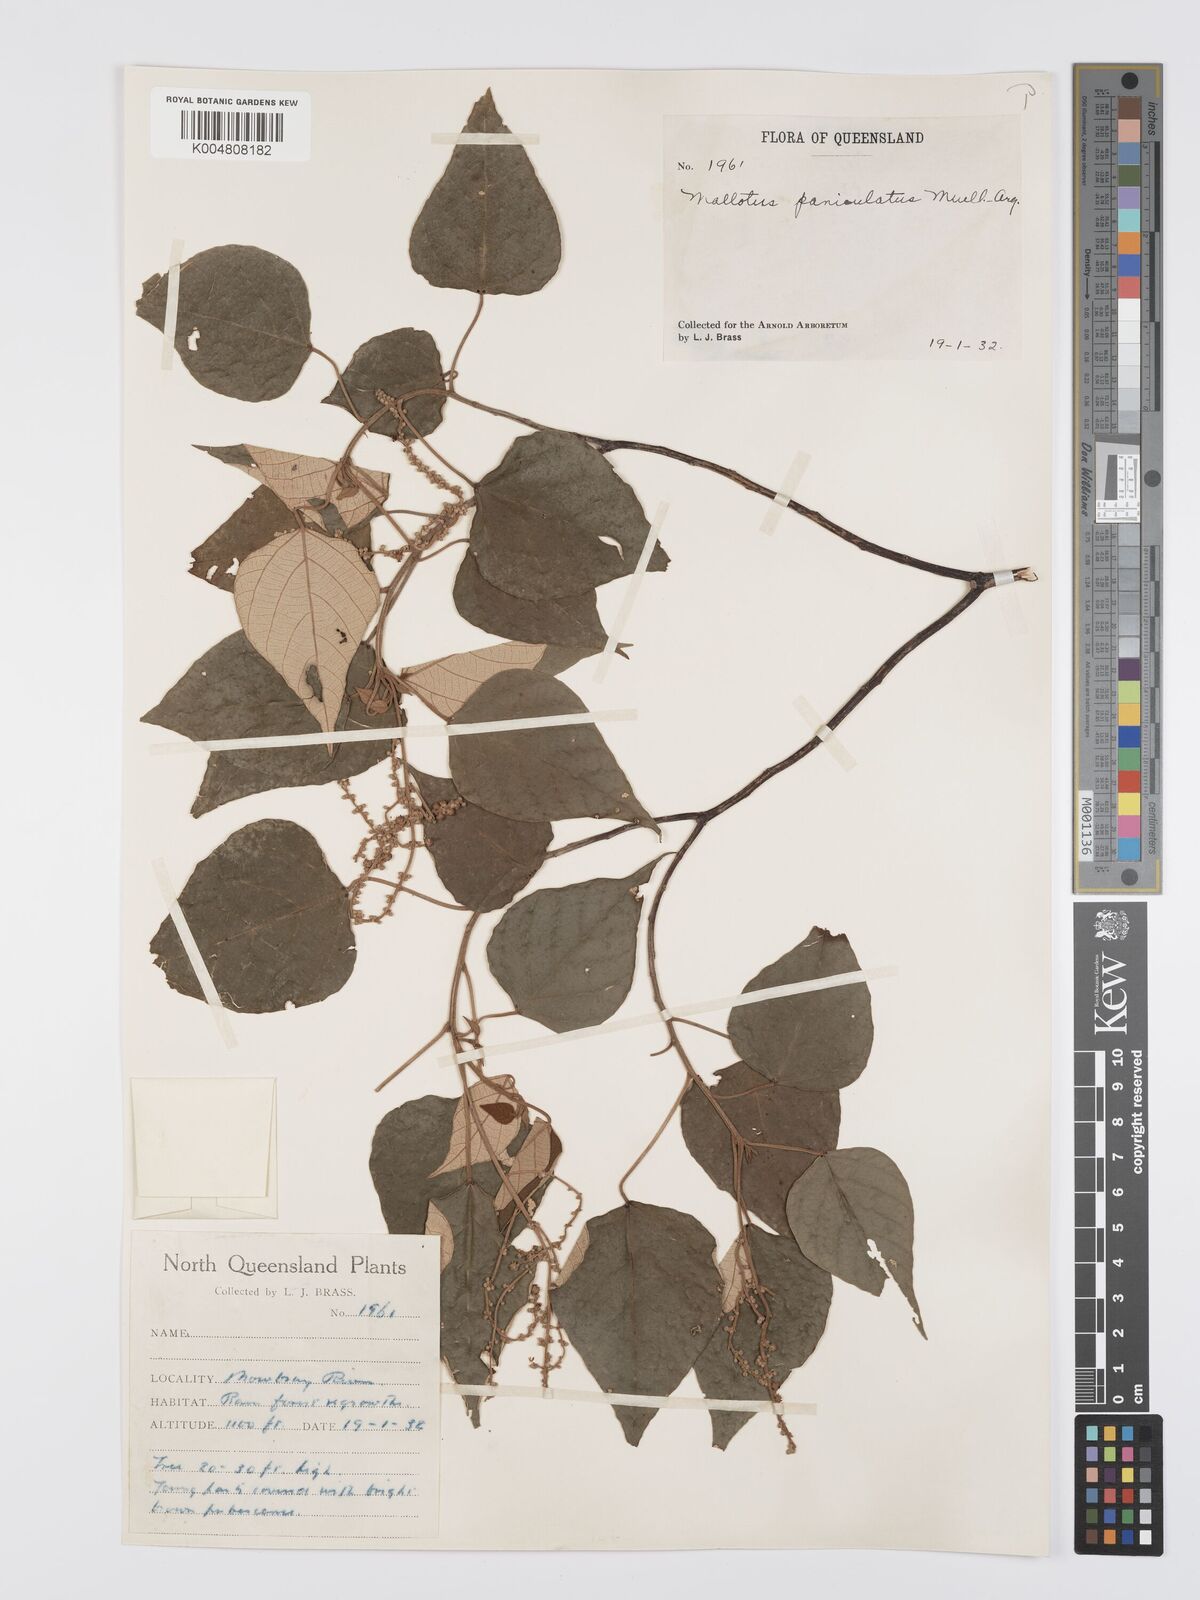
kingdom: Plantae
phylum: Tracheophyta
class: Magnoliopsida
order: Malpighiales
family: Euphorbiaceae
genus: Mallotus
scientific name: Mallotus paniculatus
